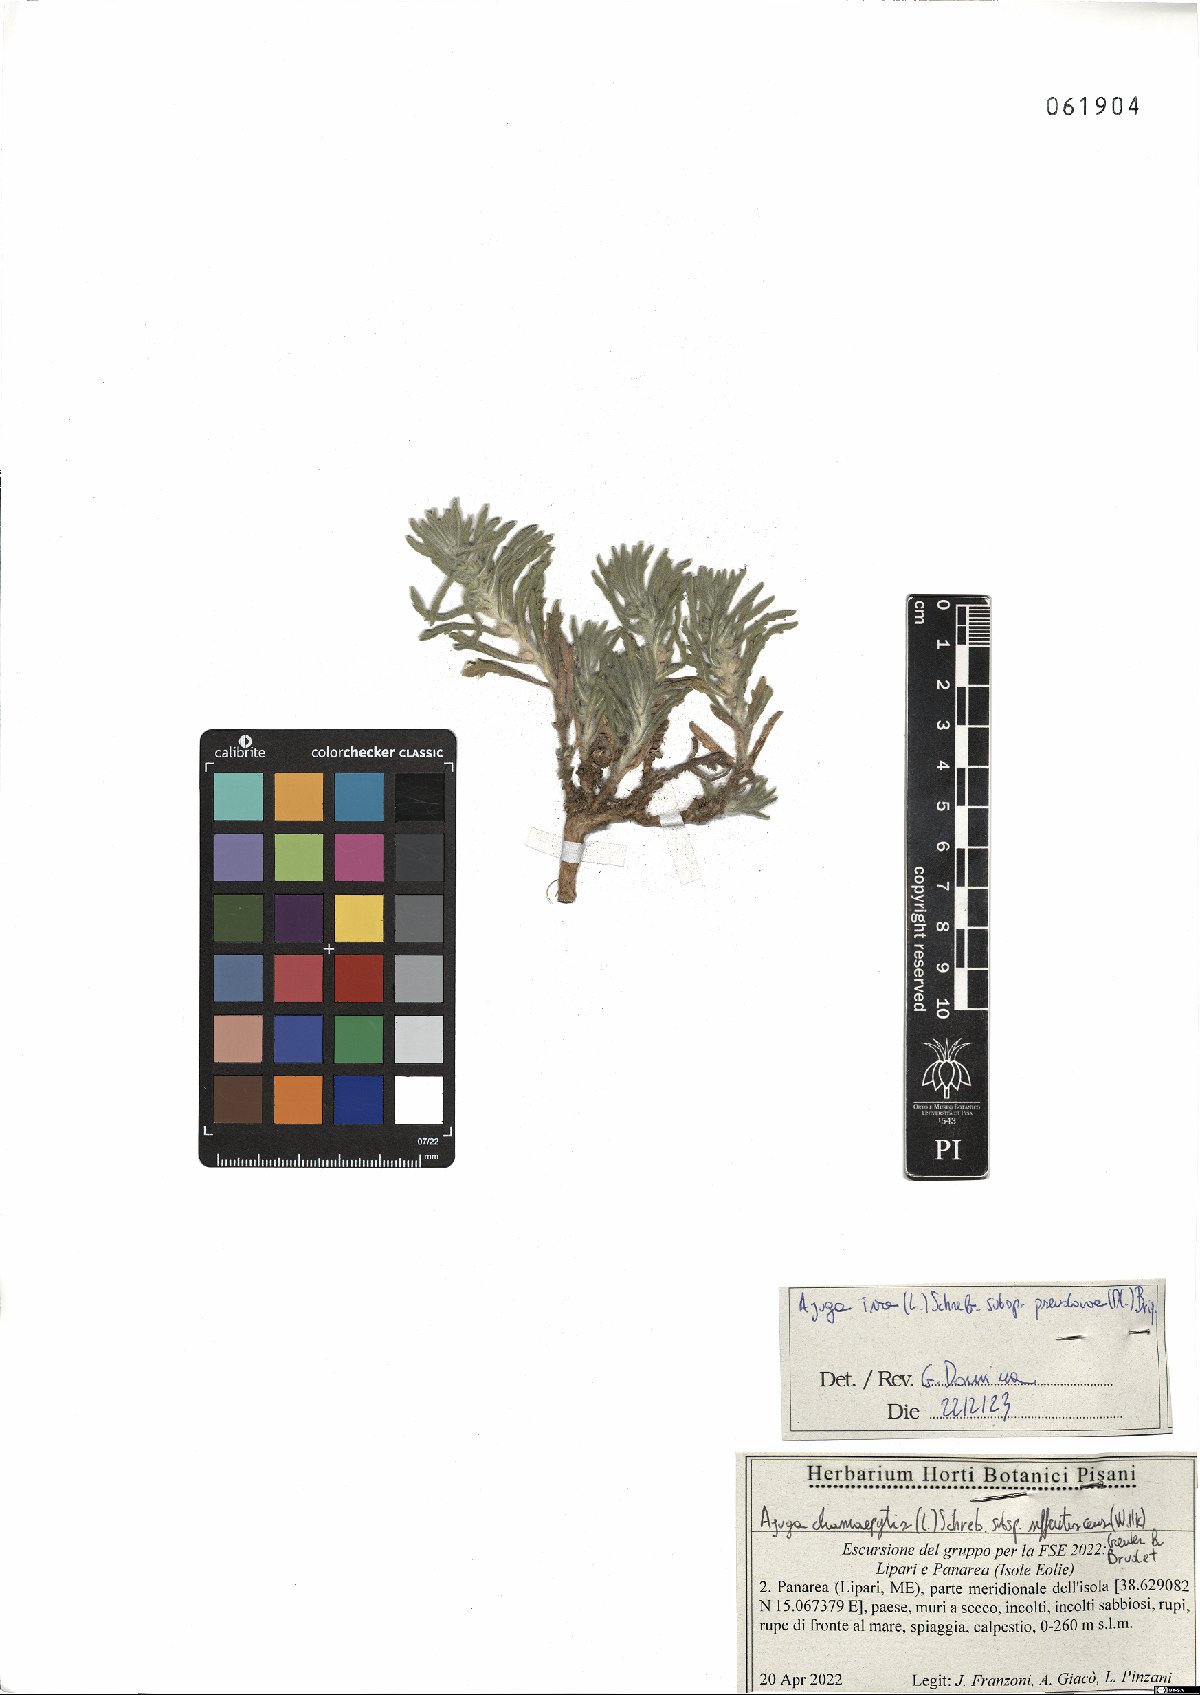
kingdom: Plantae
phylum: Tracheophyta
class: Magnoliopsida
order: Lamiales
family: Lamiaceae
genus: Ajuga
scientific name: Ajuga iva
